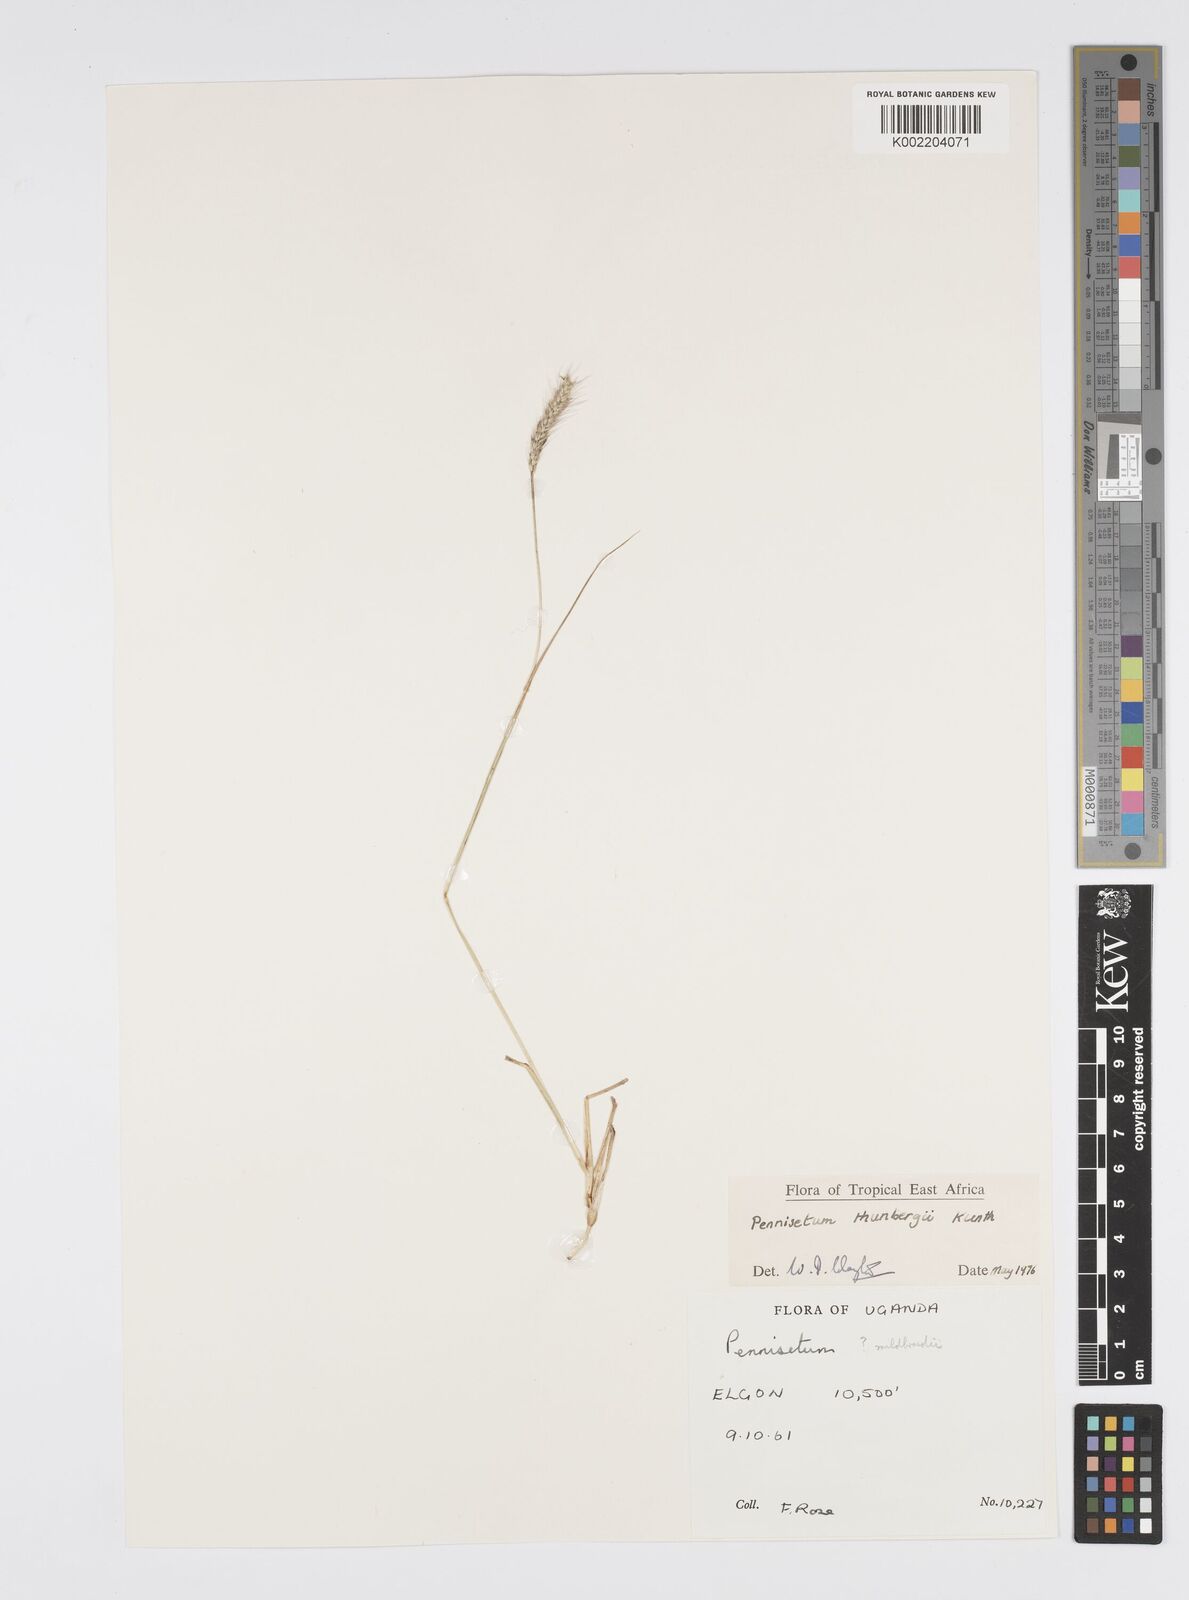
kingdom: Plantae
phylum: Tracheophyta
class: Liliopsida
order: Poales
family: Poaceae
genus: Cenchrus
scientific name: Cenchrus geniculatus
